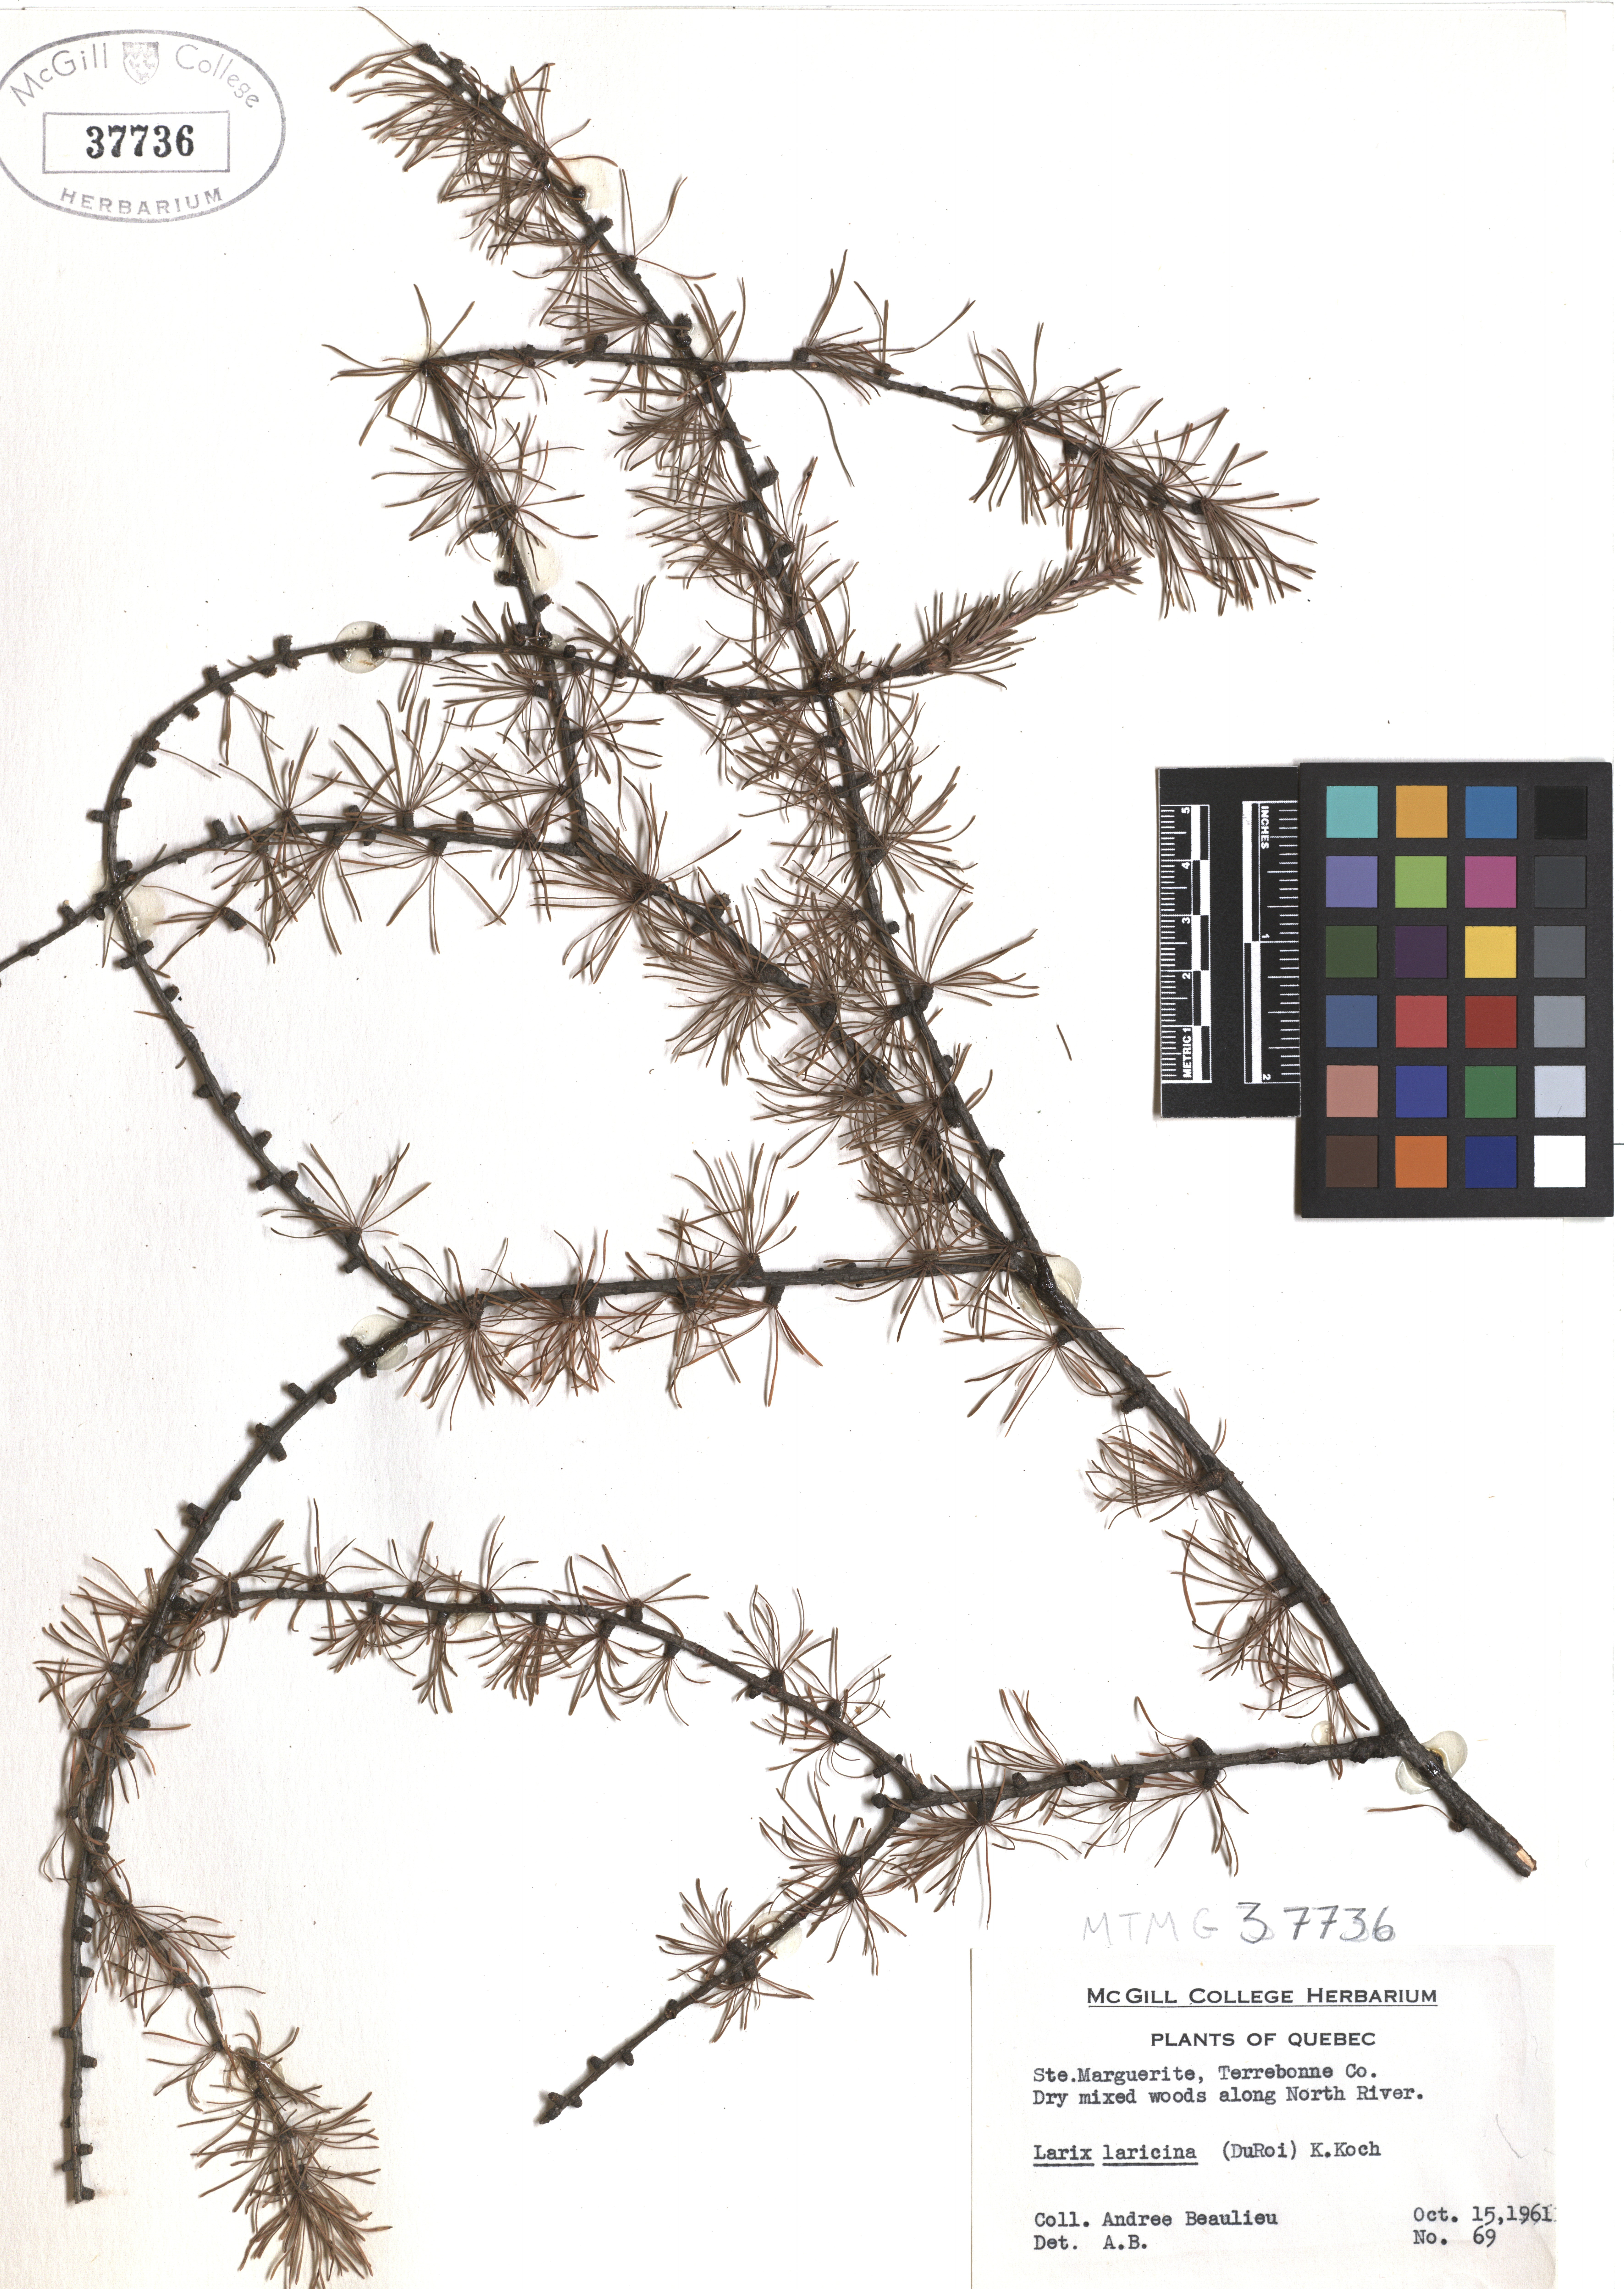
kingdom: Plantae
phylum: Tracheophyta
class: Pinopsida
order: Pinales
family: Pinaceae
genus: Larix
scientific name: Larix laricina
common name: American larch
